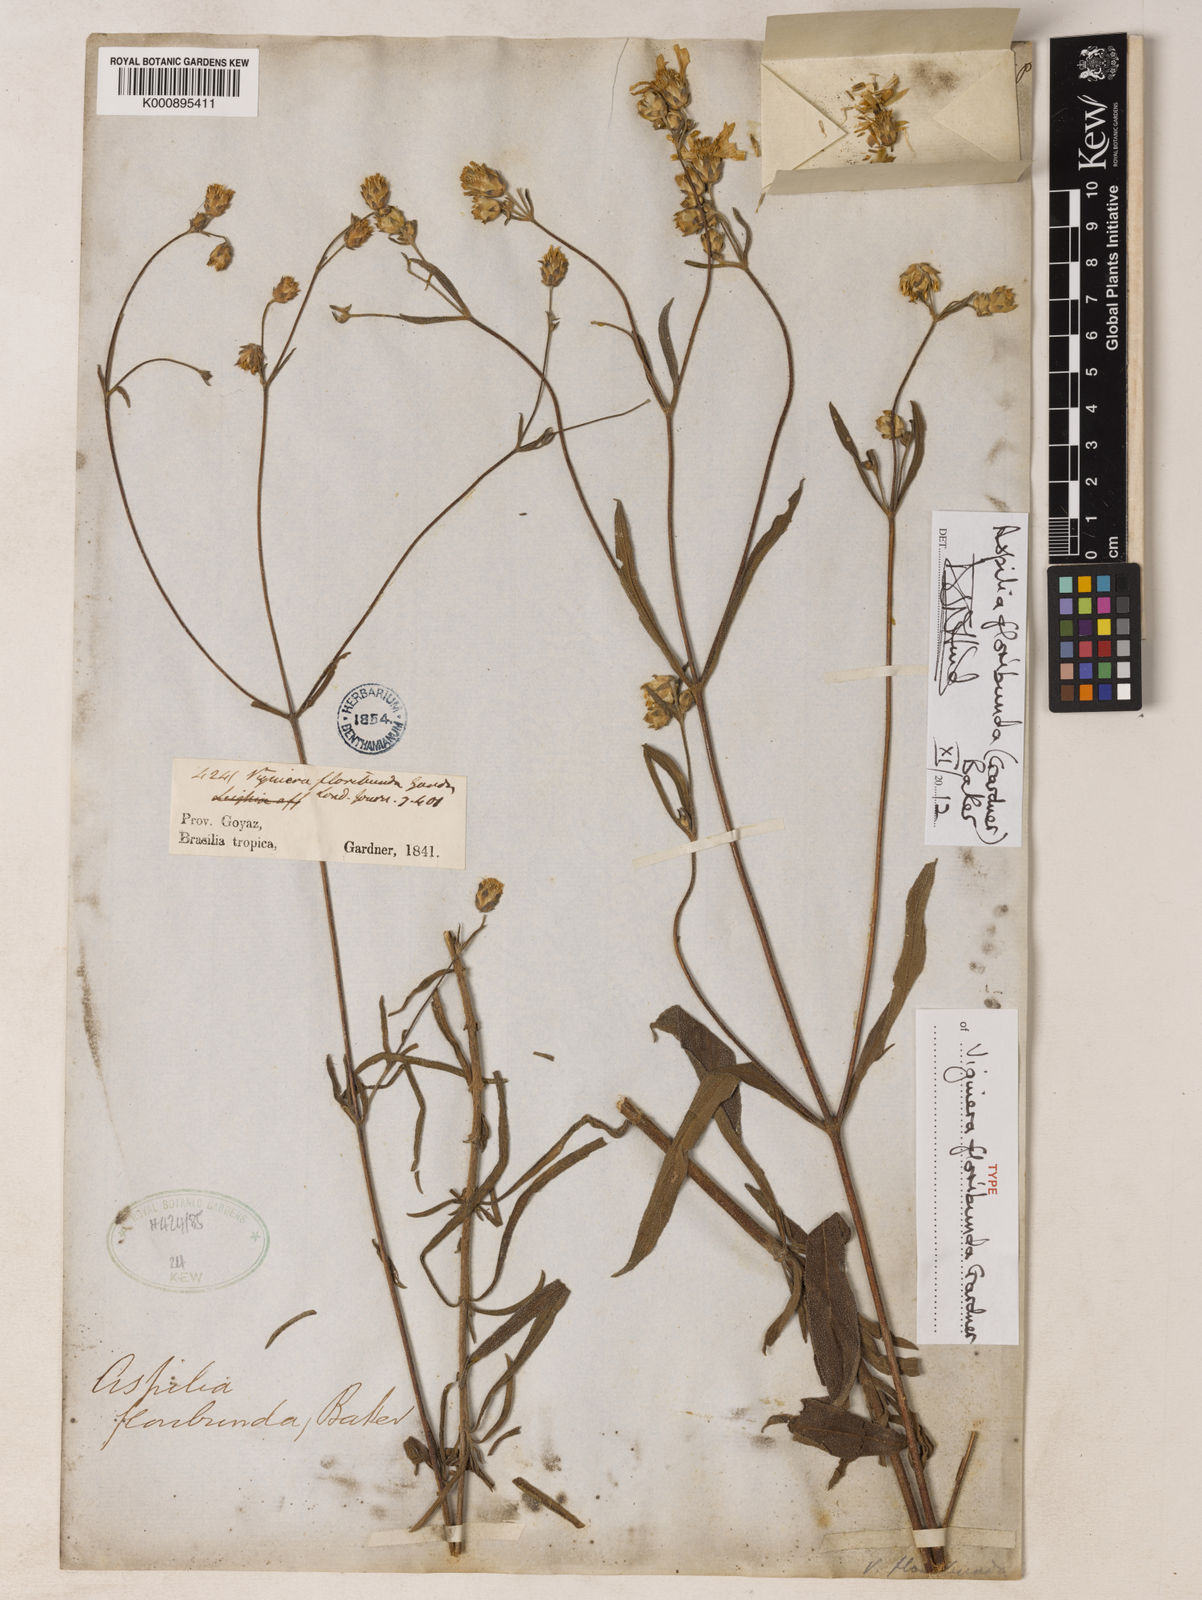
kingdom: Plantae
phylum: Tracheophyta
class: Magnoliopsida
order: Asterales
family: Asteraceae
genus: Wedelia
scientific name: Wedelia floribunda
